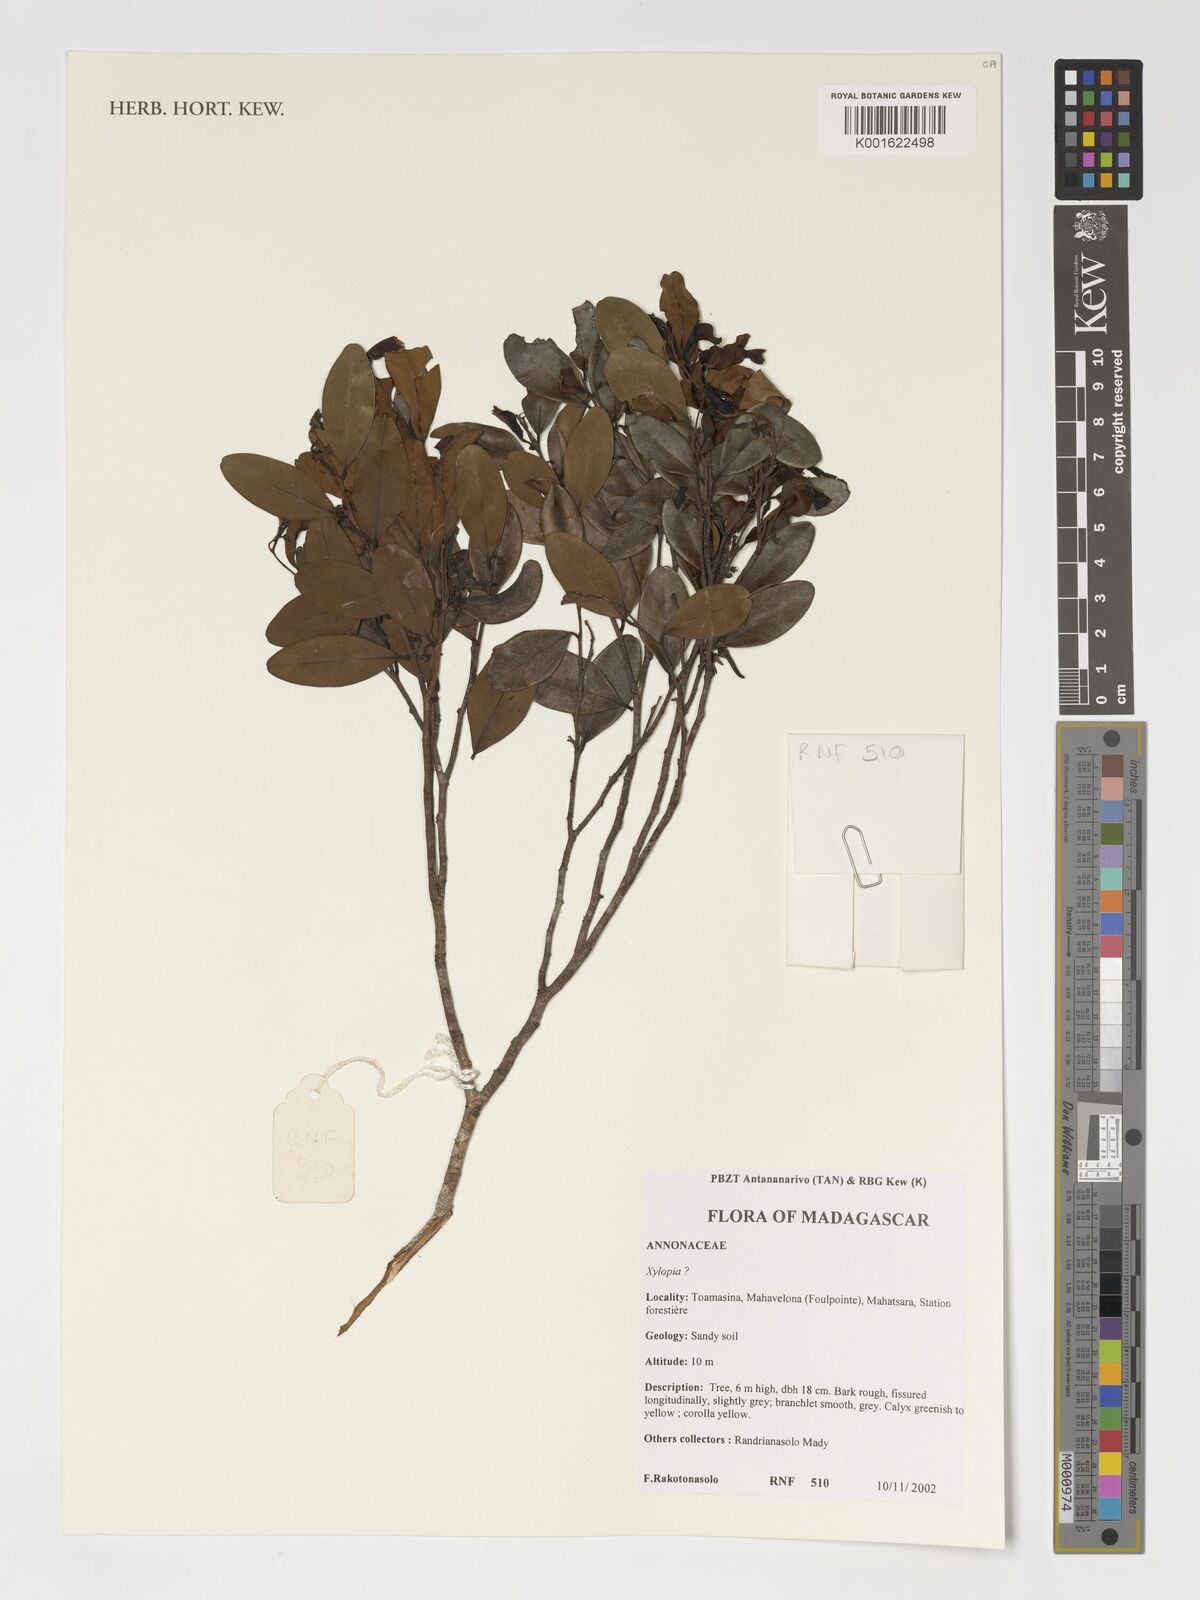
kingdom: Plantae
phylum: Tracheophyta
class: Magnoliopsida
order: Magnoliales
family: Annonaceae
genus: Xylopia
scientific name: Xylopia
